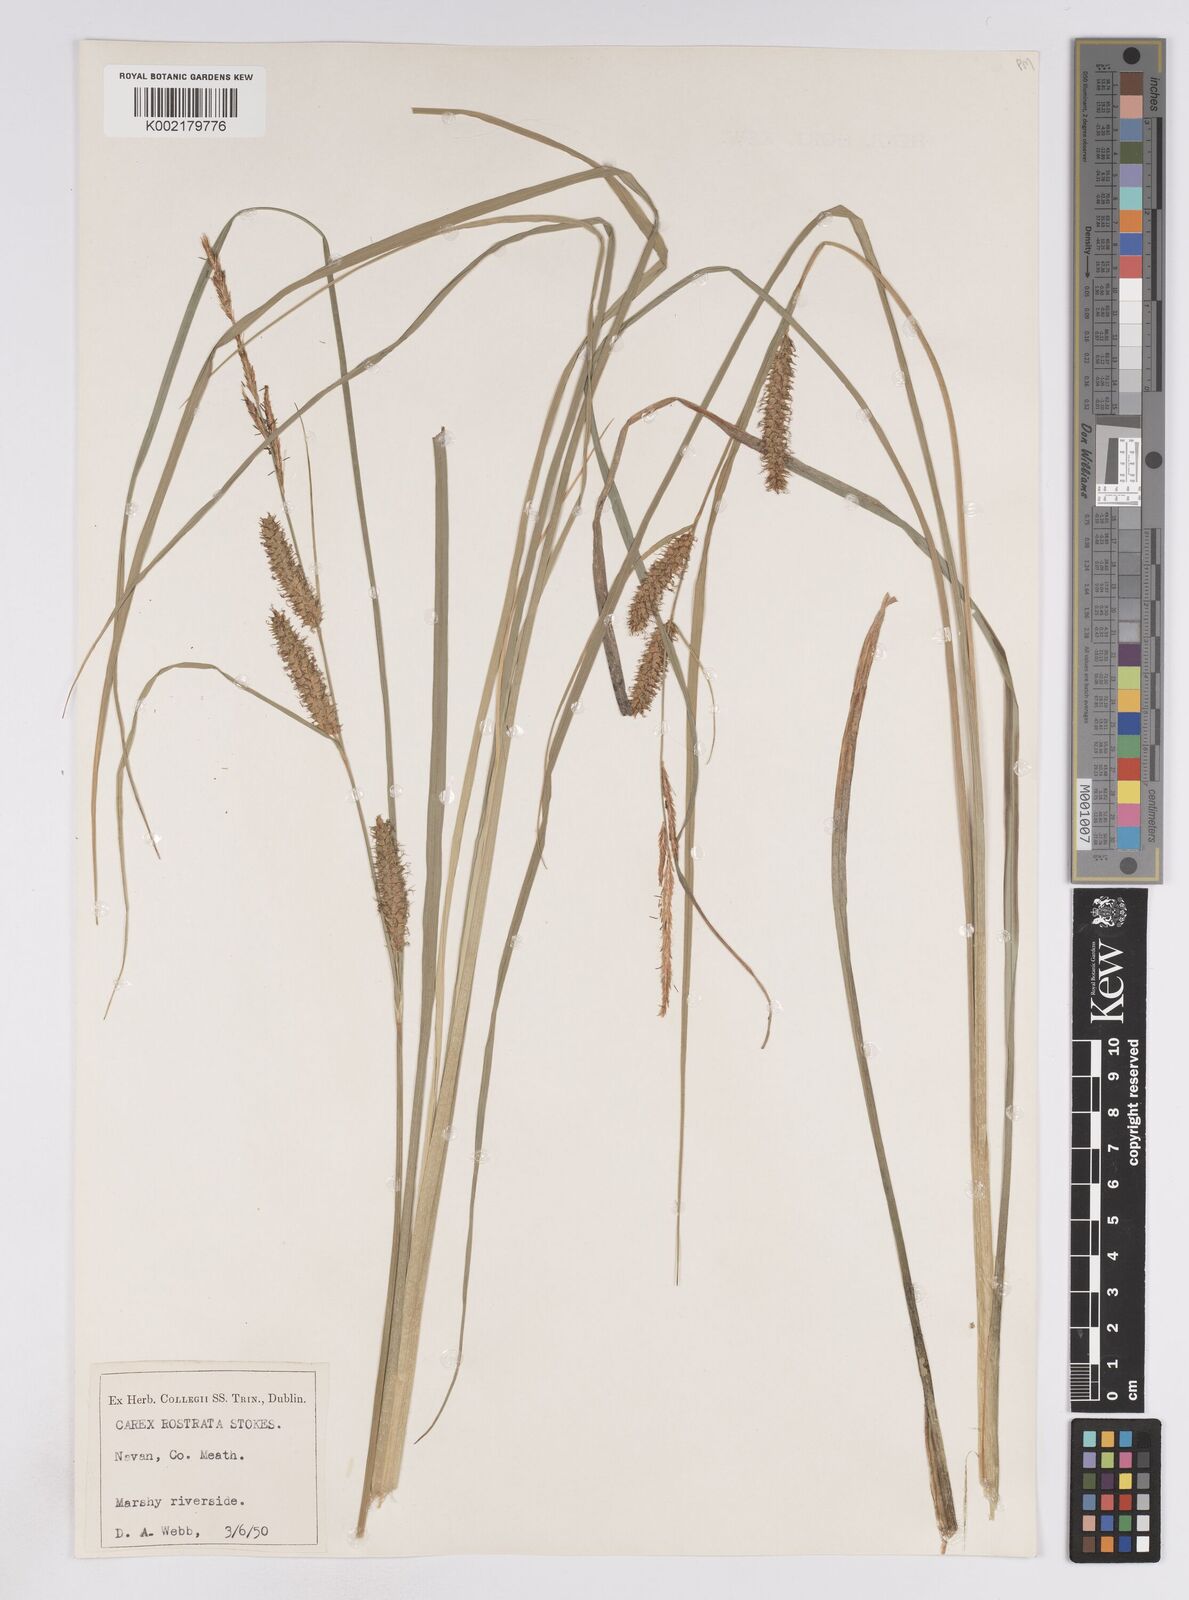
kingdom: Plantae
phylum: Tracheophyta
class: Liliopsida
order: Poales
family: Cyperaceae
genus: Carex
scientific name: Carex rostrata
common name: Bottle sedge
